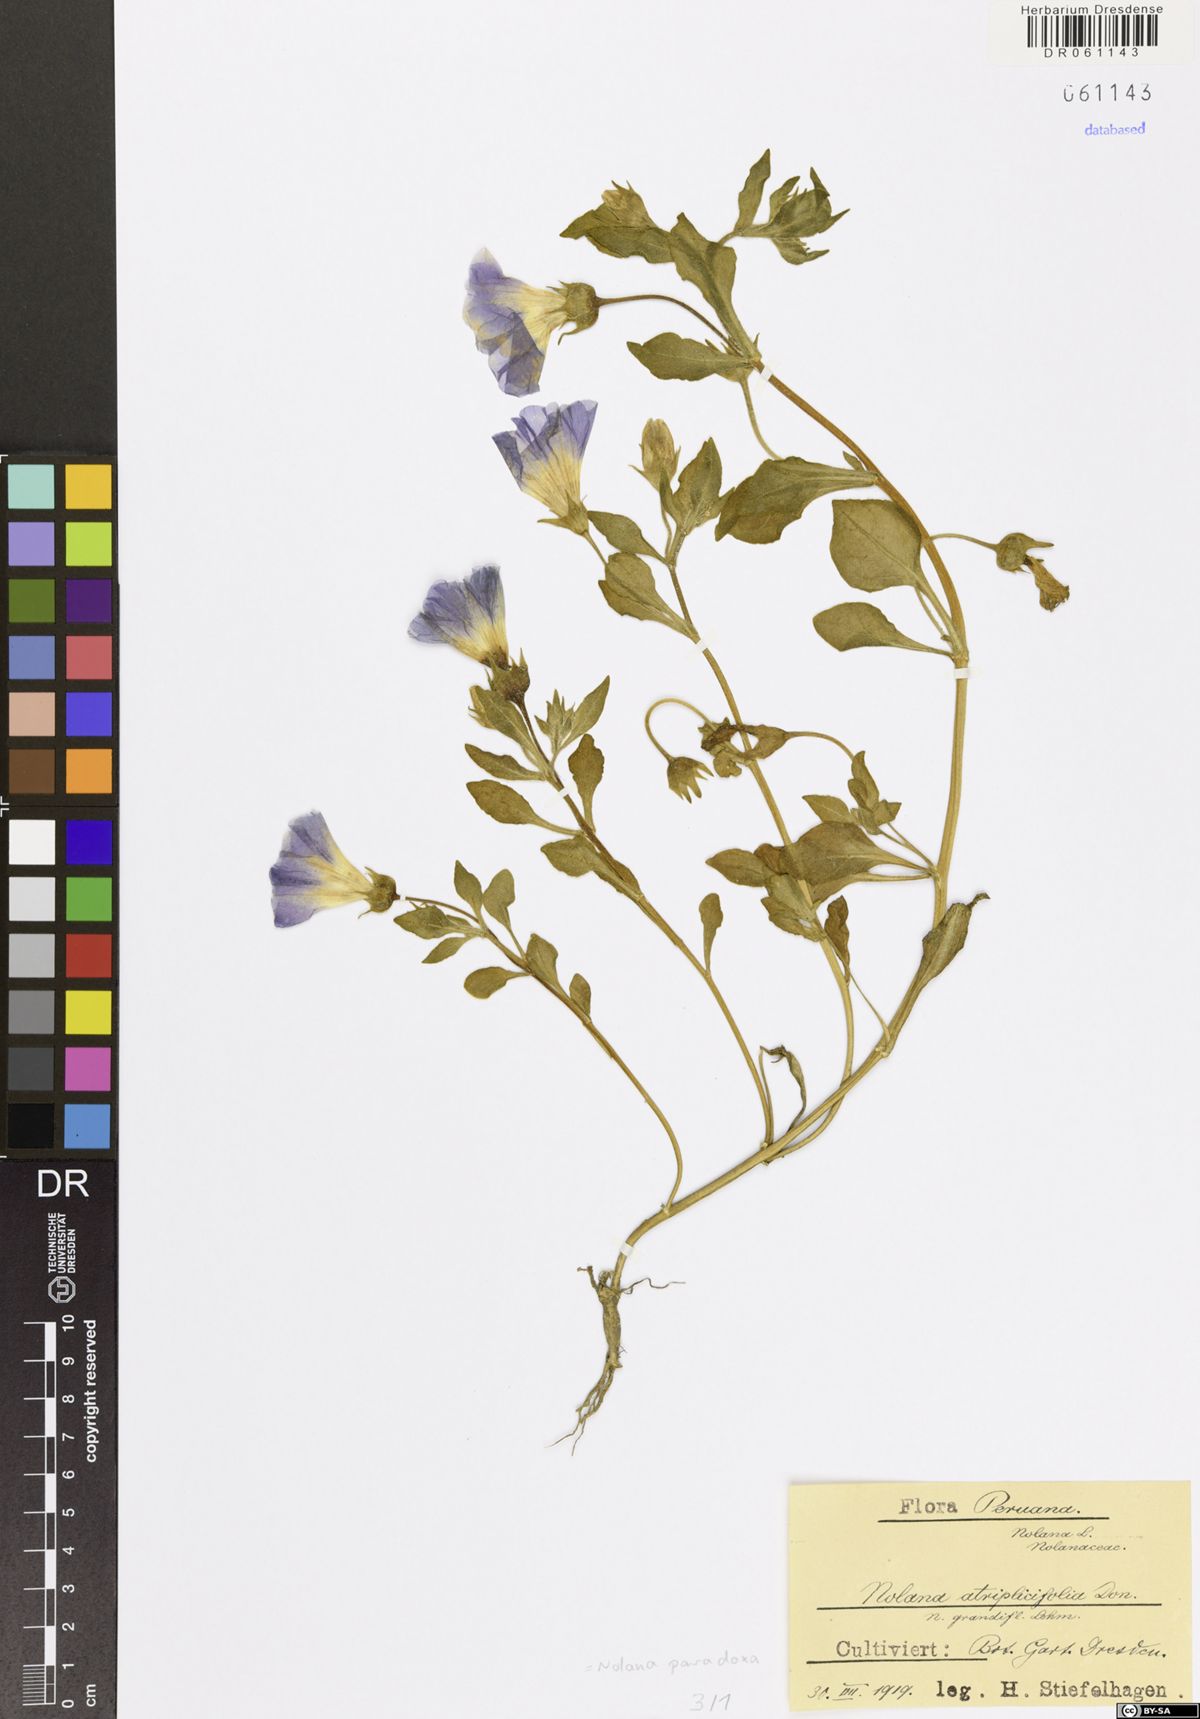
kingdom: Plantae
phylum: Tracheophyta
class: Magnoliopsida
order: Solanales
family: Solanaceae
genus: Nolana
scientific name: Nolana paradoxa
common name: Chilean-bellflower
